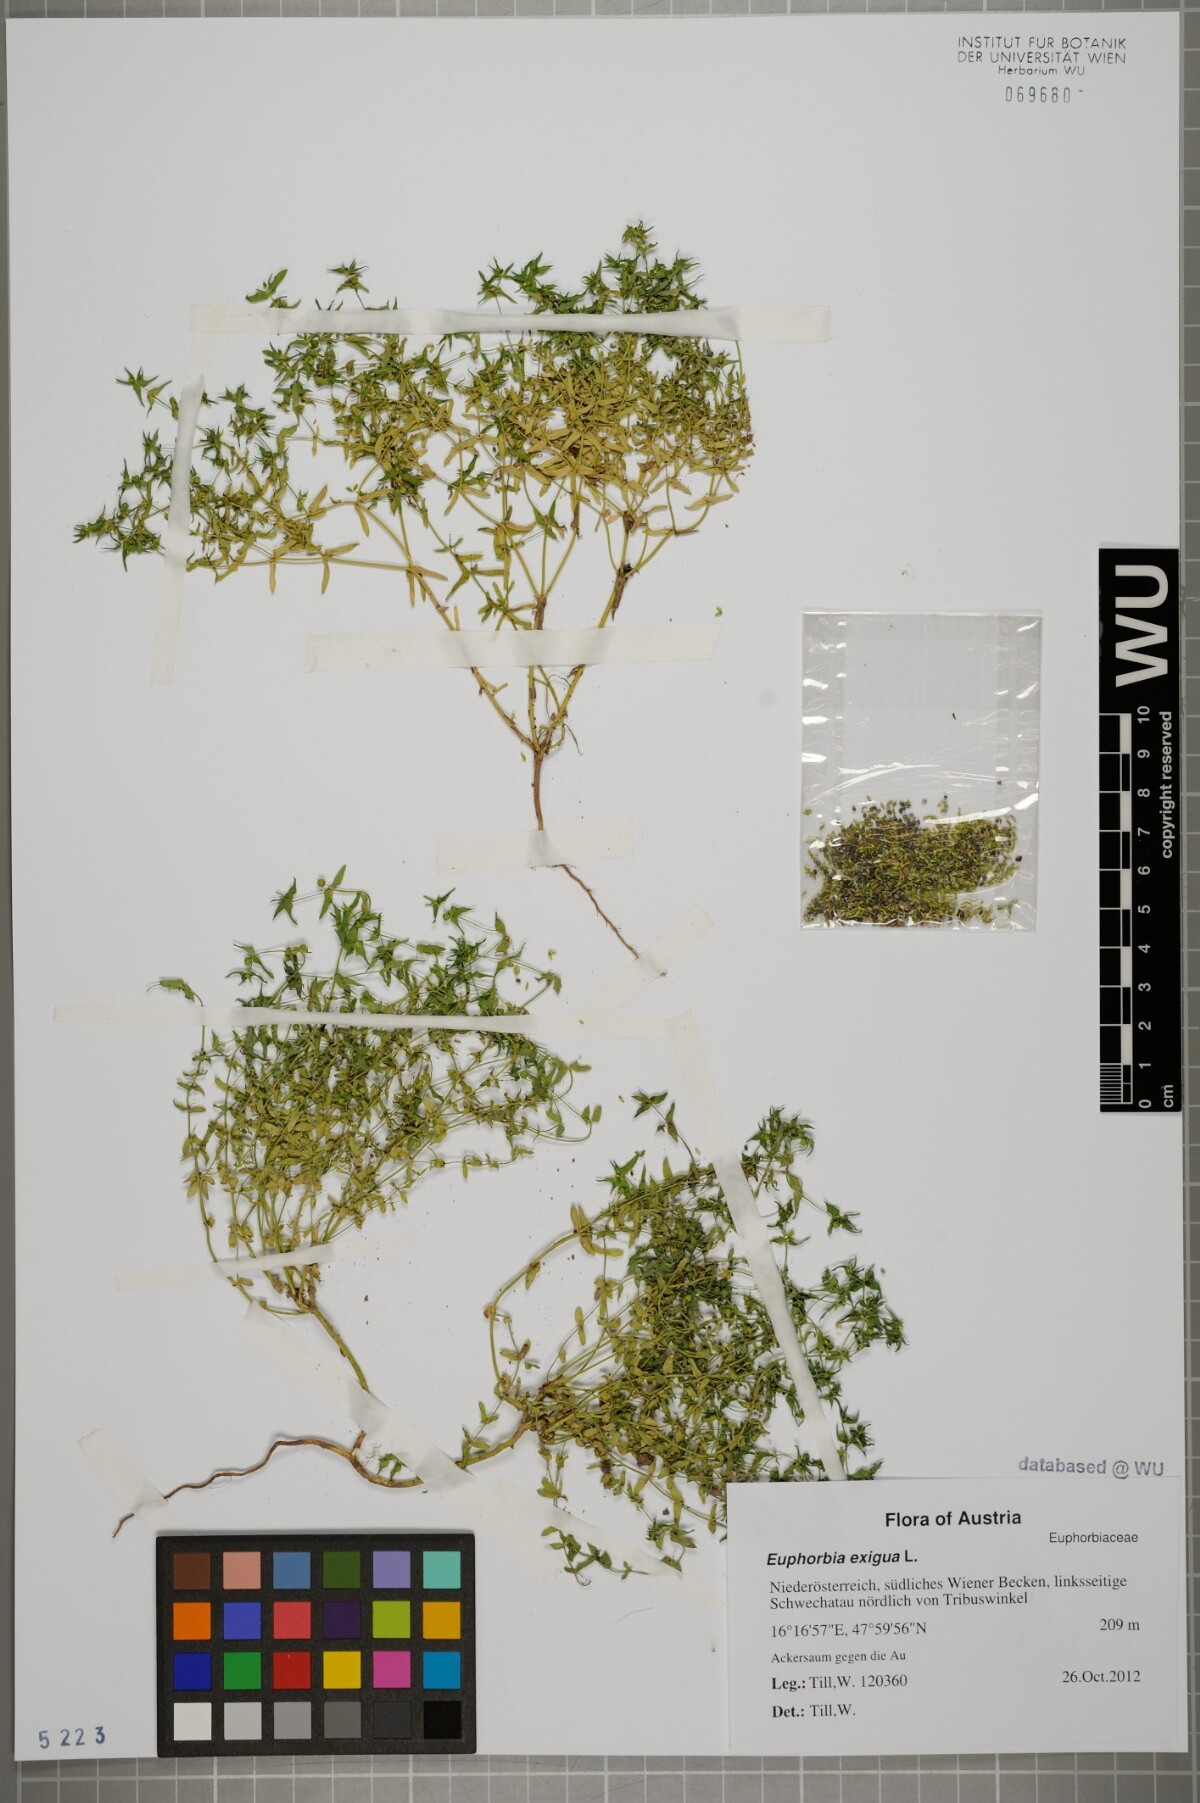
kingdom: Plantae
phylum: Tracheophyta
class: Magnoliopsida
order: Malpighiales
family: Euphorbiaceae
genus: Euphorbia
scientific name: Euphorbia exigua
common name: Dwarf spurge
